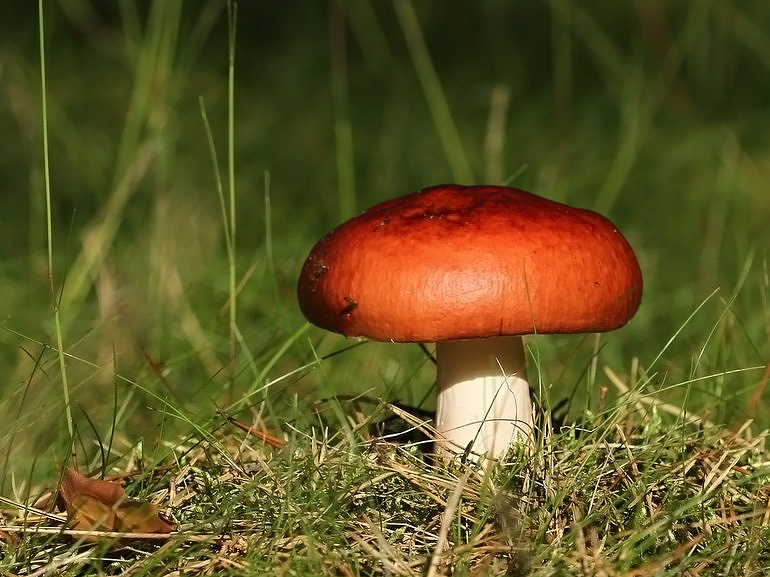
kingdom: Fungi
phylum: Basidiomycota
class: Agaricomycetes
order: Russulales
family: Russulaceae
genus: Russula
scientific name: Russula paludosa
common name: prægtig skørhat
